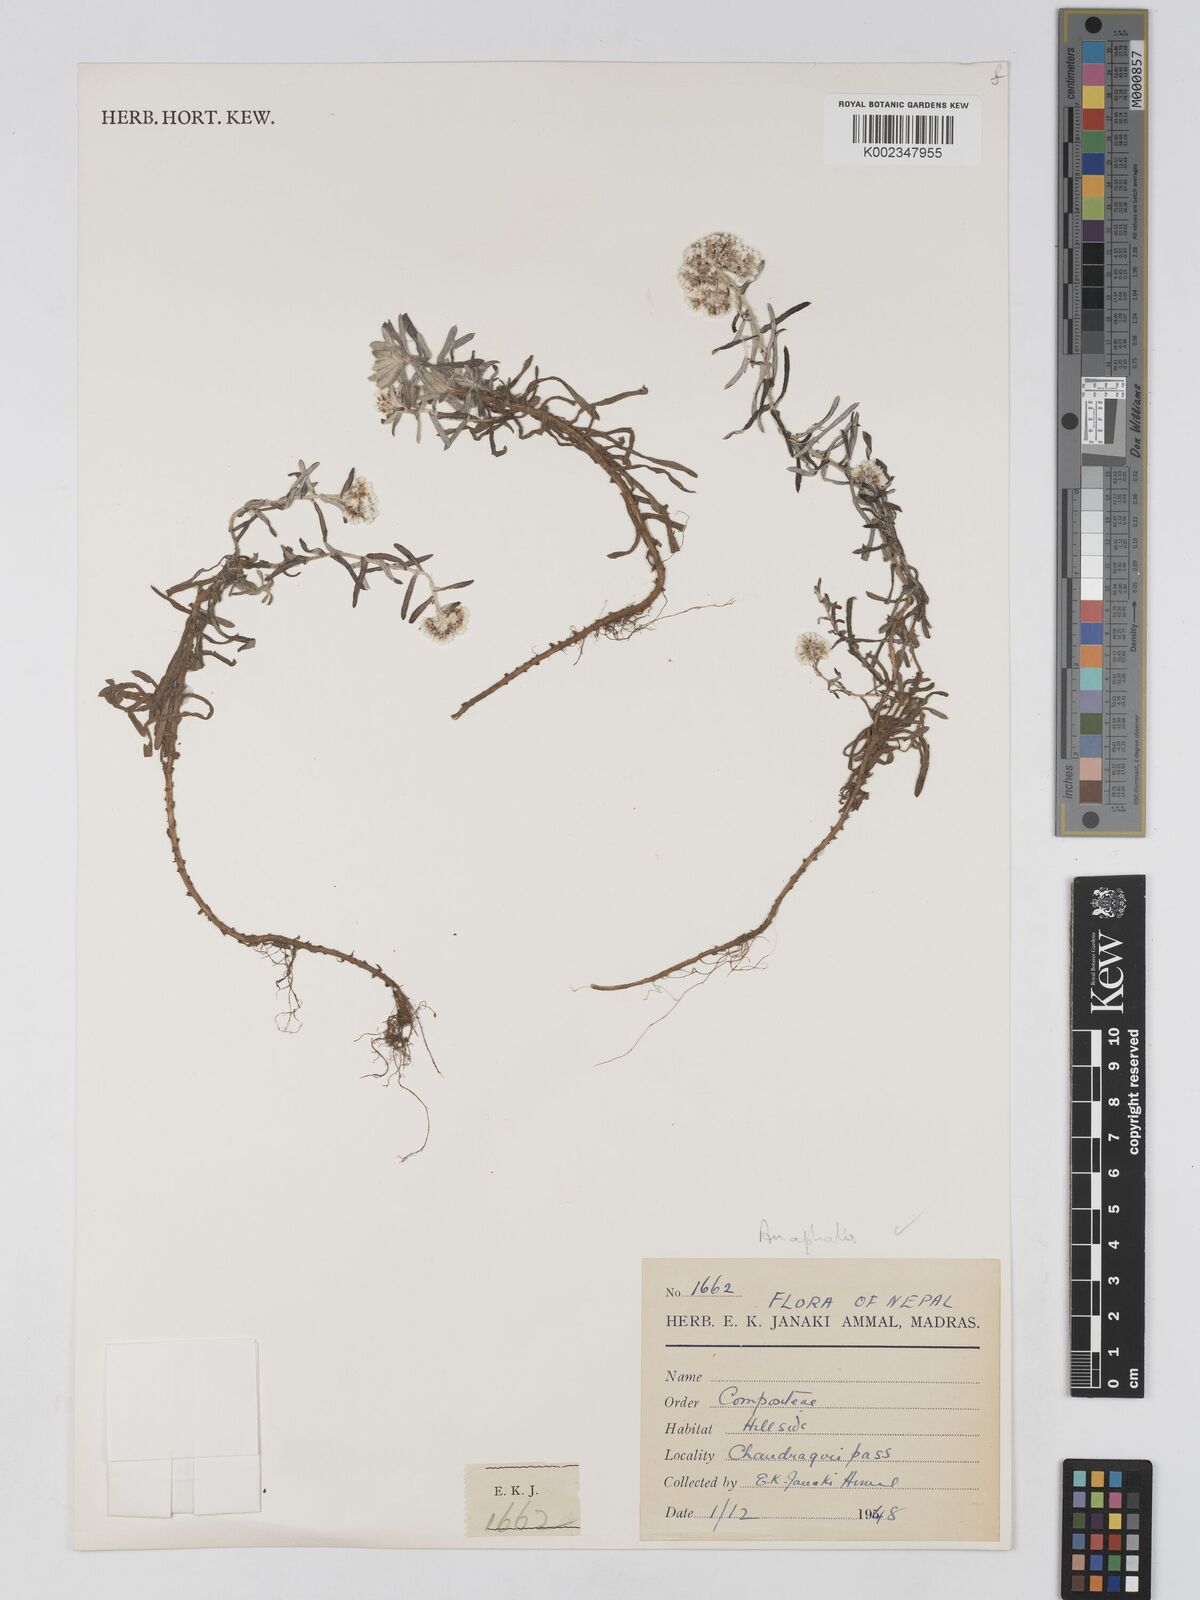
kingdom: Plantae
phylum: Tracheophyta
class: Magnoliopsida
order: Asterales
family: Asteraceae
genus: Anaphalis
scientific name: Anaphalis
